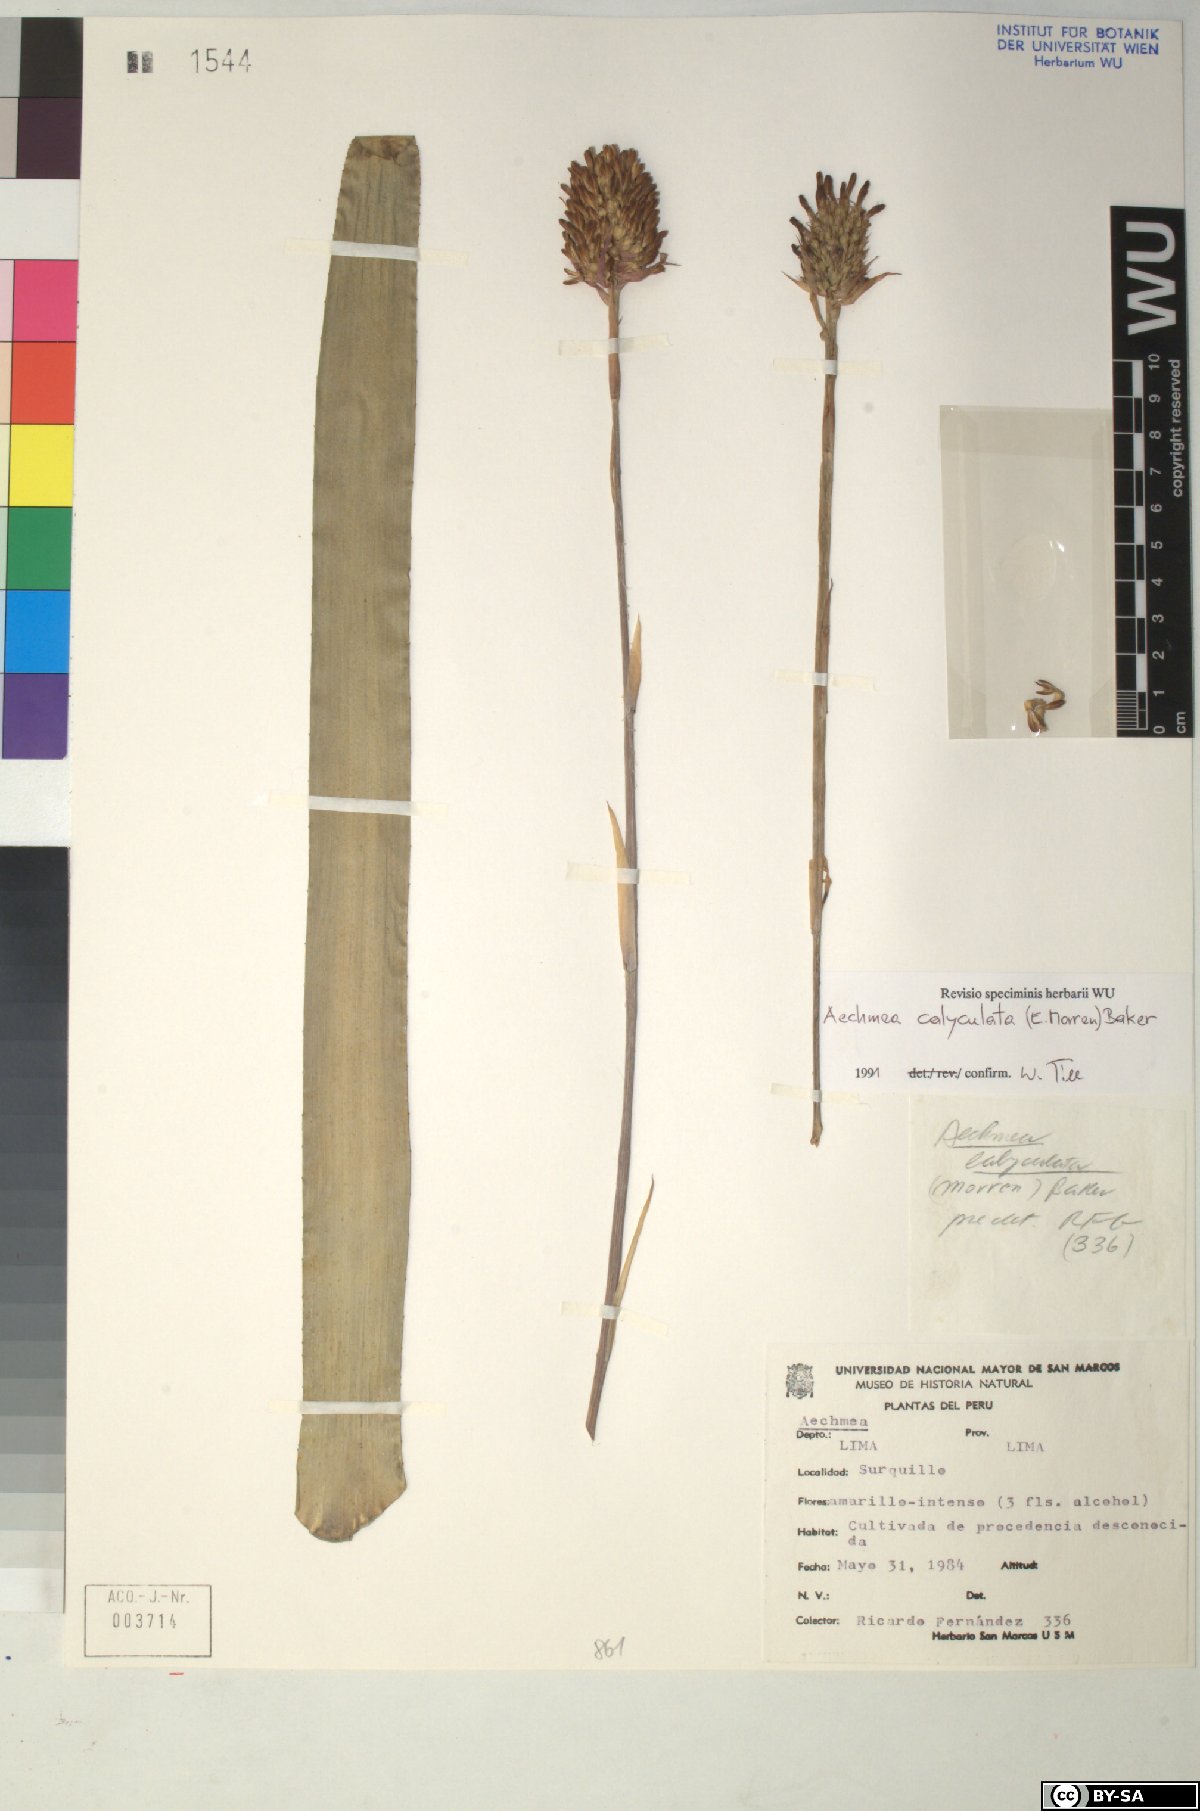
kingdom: Plantae
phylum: Tracheophyta
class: Liliopsida
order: Poales
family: Bromeliaceae
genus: Aechmea
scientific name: Aechmea
